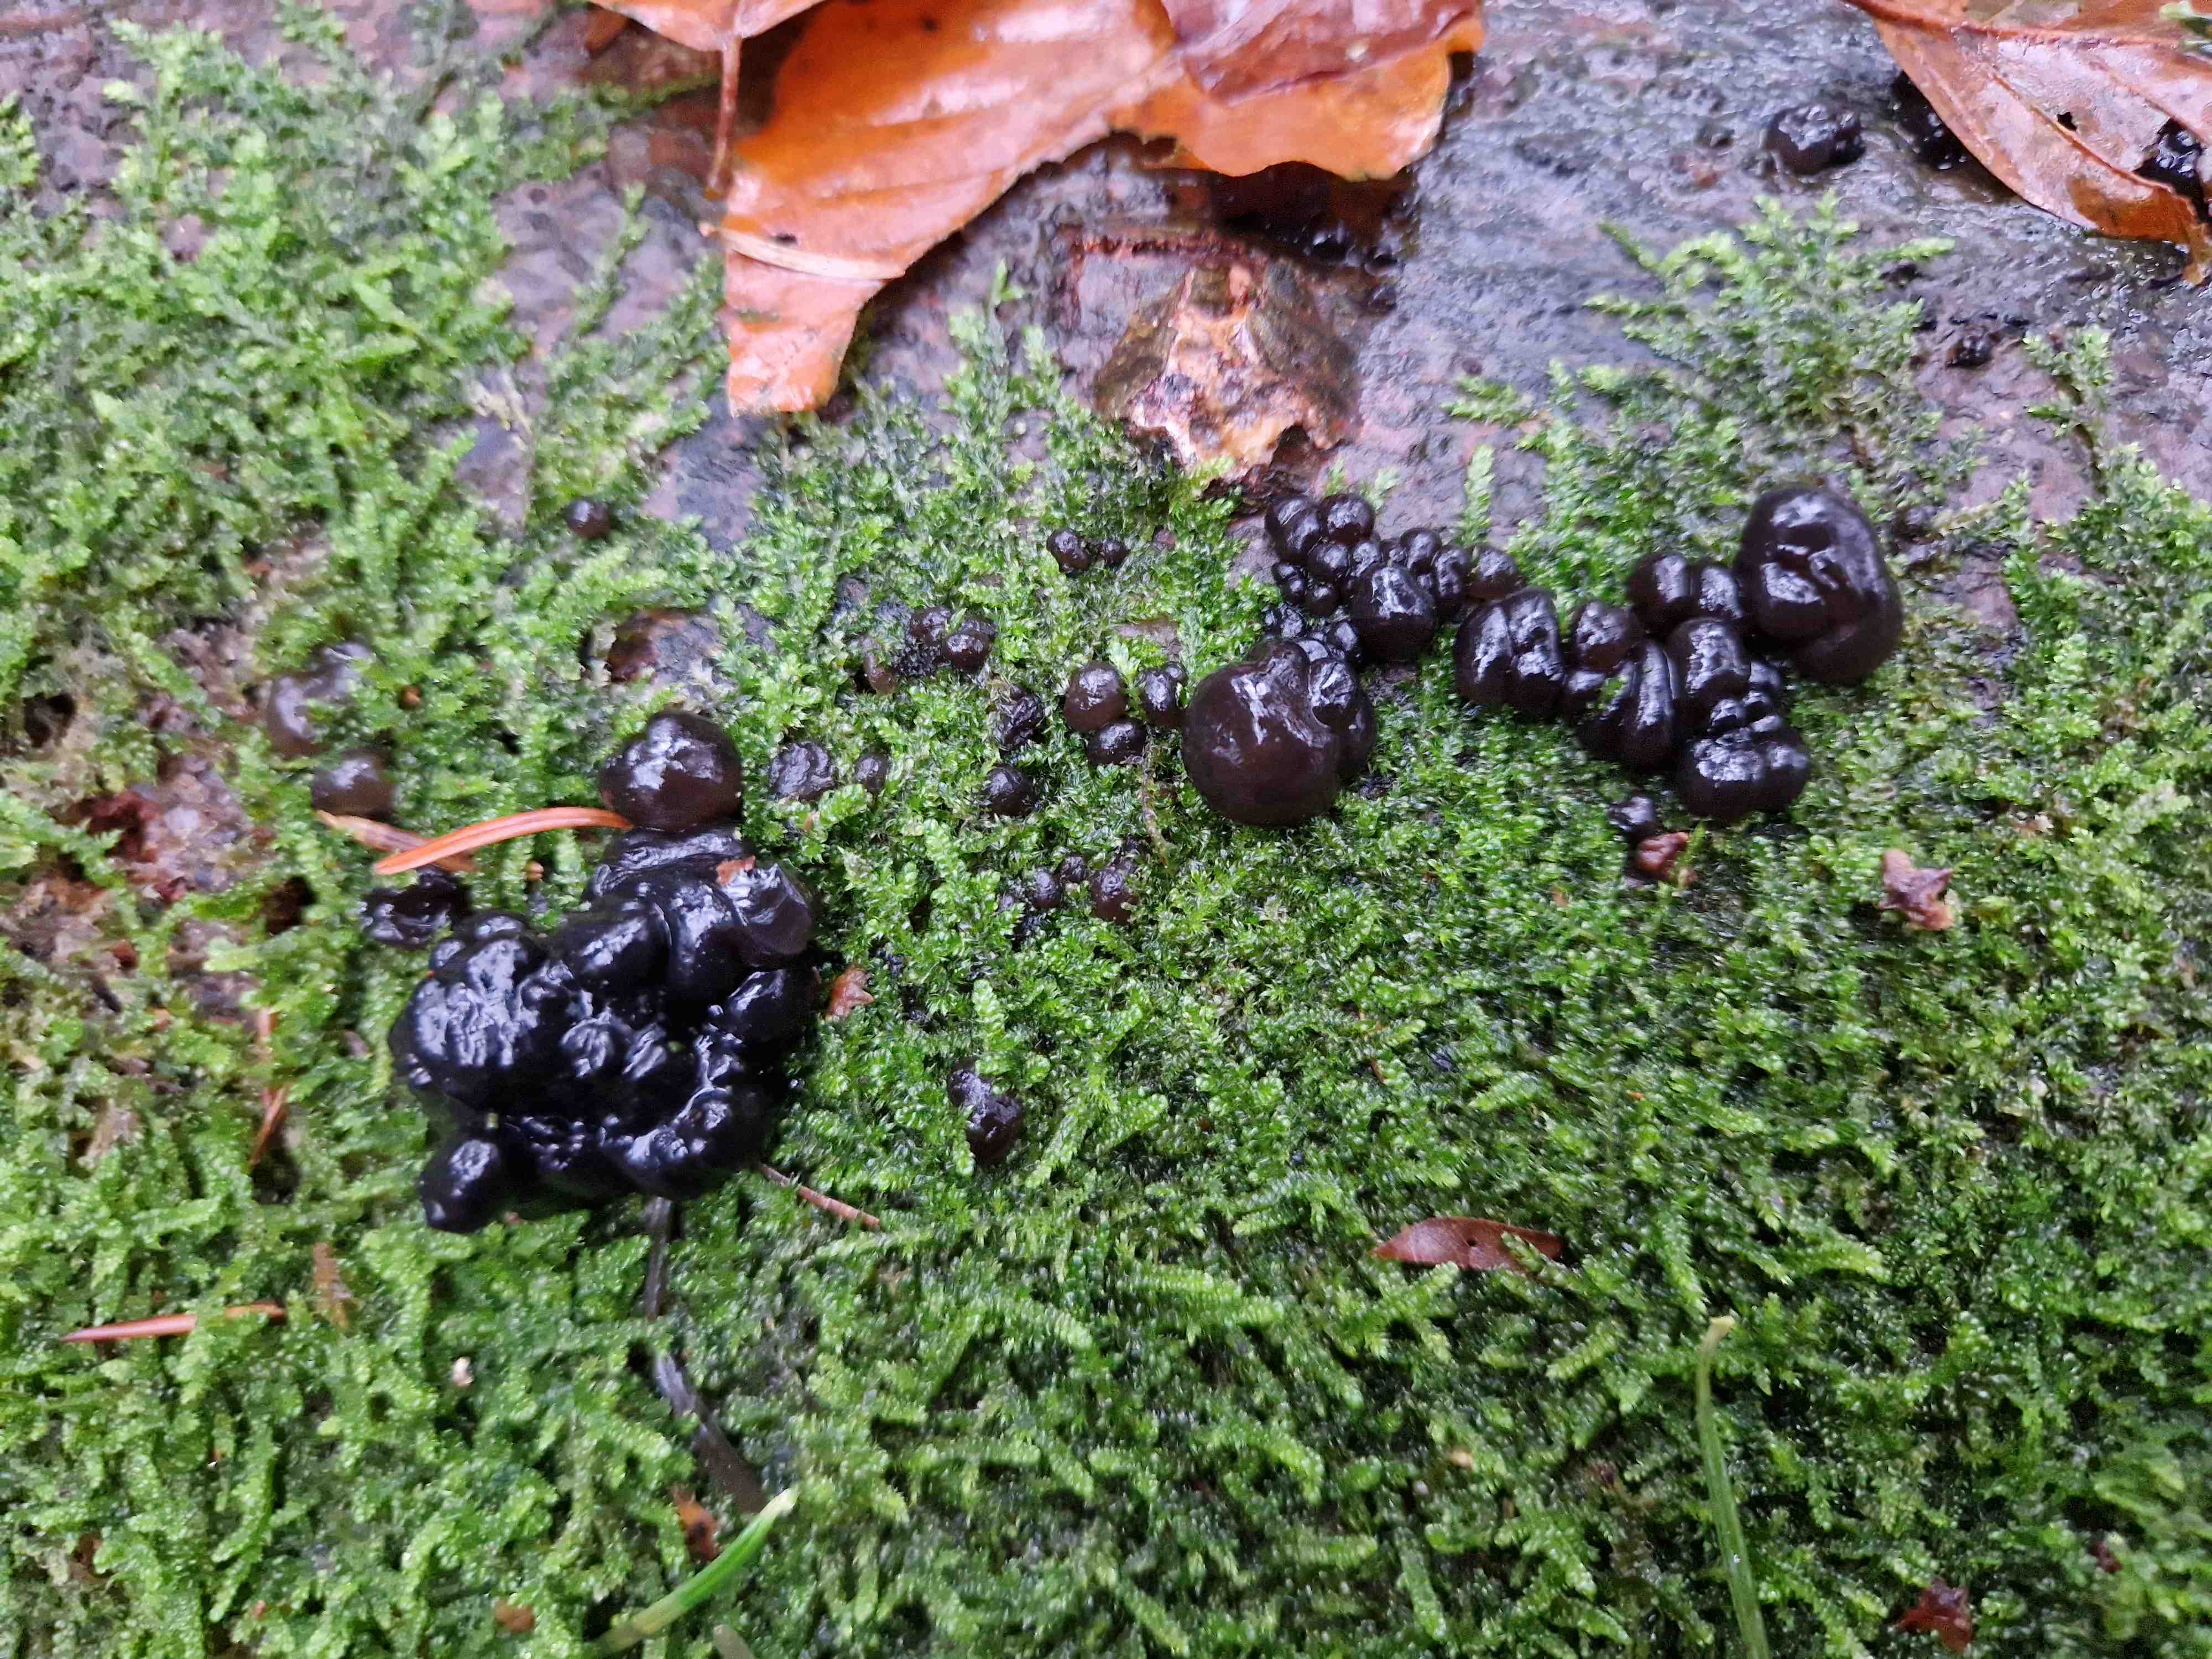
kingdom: Fungi
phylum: Basidiomycota
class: Agaricomycetes
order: Auriculariales
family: Auriculariaceae
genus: Exidia
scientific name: Exidia nigricans
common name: almindelig bævretop
